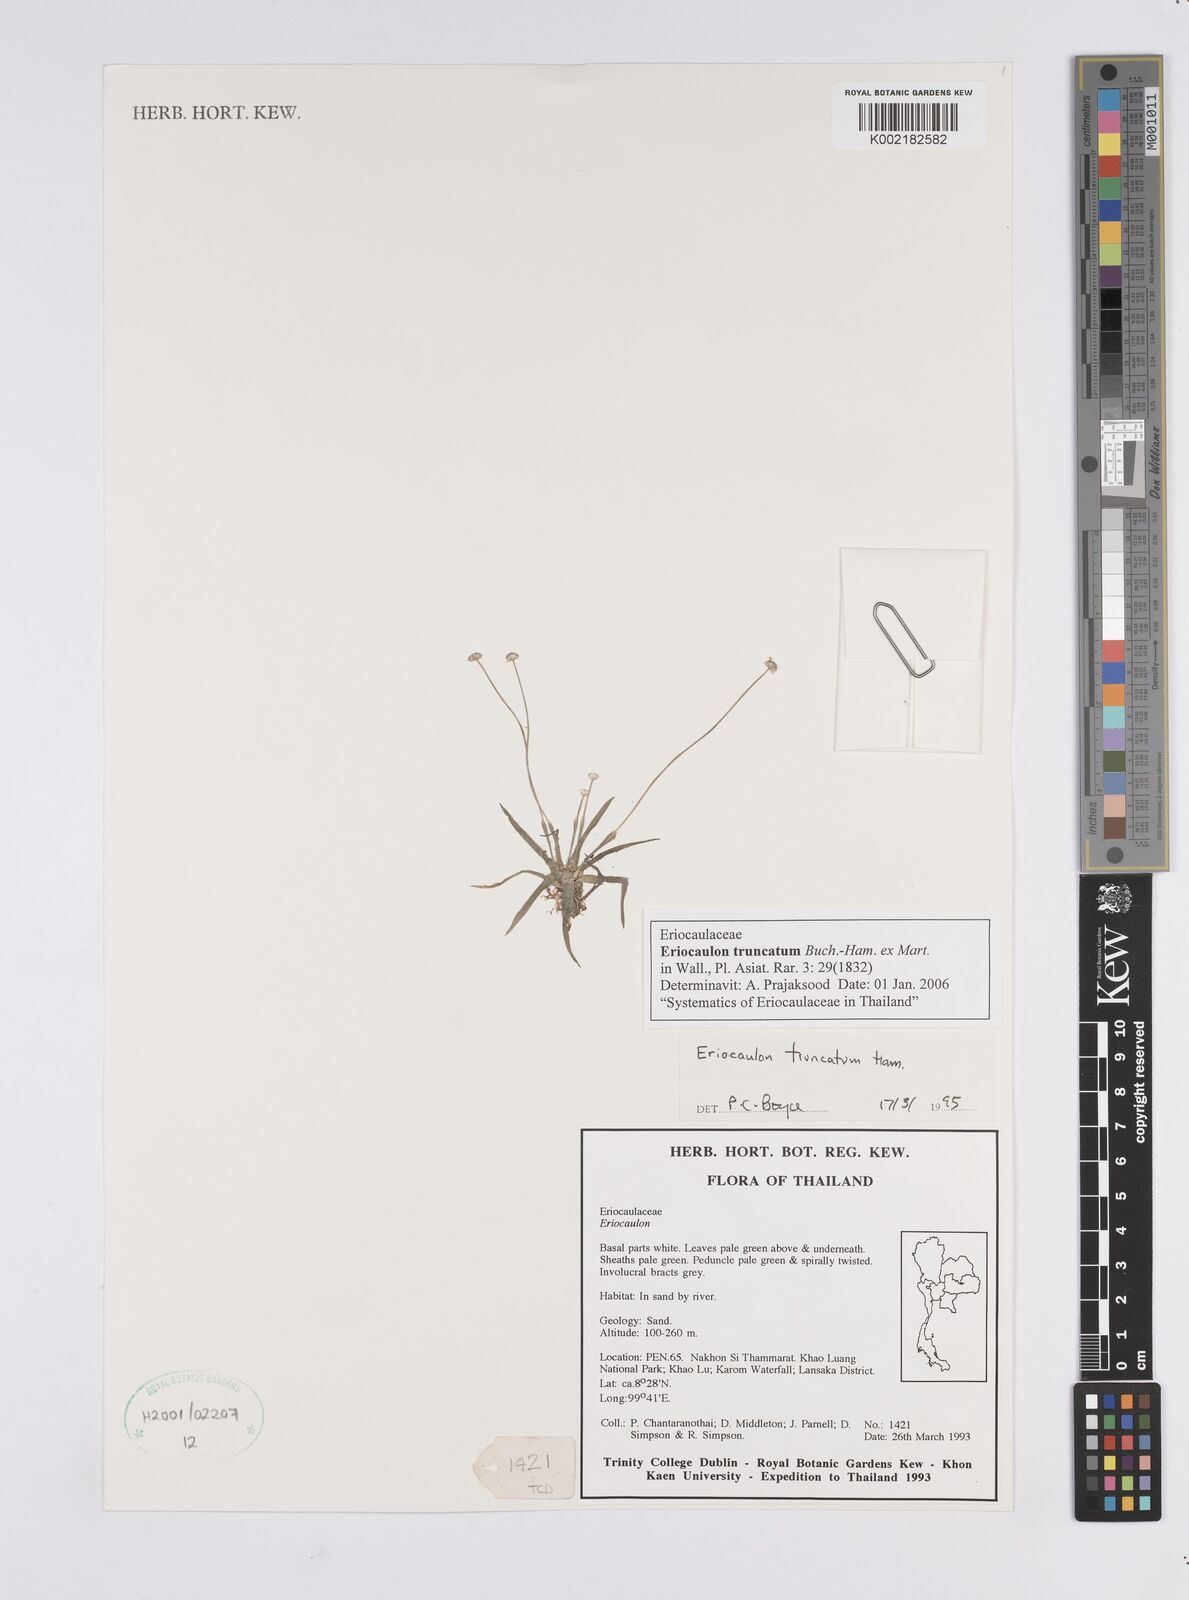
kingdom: Plantae
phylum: Tracheophyta
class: Liliopsida
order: Poales
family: Eriocaulaceae
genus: Eriocaulon
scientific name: Eriocaulon truncatum
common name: Short pipe-wort
